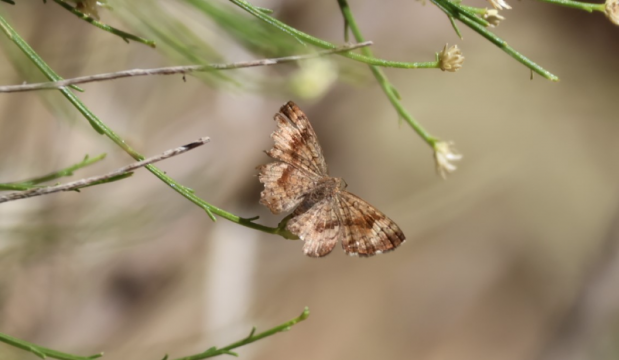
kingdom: Animalia
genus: Calephelis
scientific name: Calephelis nemesis
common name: Fatal Metalmark
